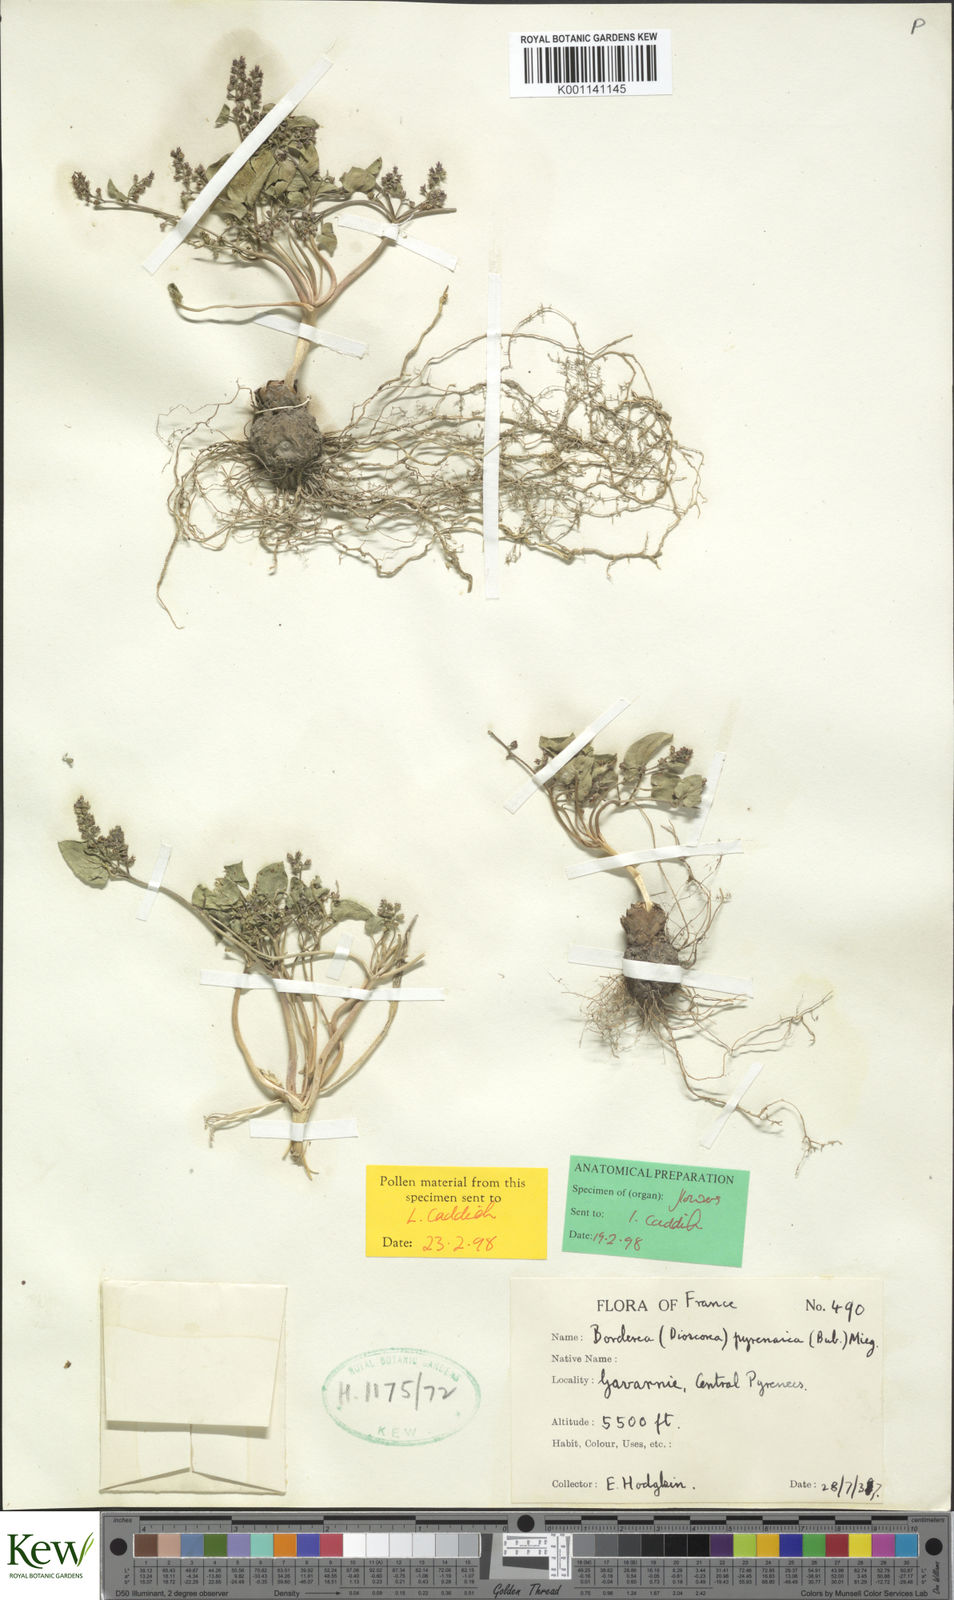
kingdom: Plantae
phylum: Tracheophyta
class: Liliopsida
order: Dioscoreales
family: Dioscoreaceae
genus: Dioscorea
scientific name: Dioscorea
